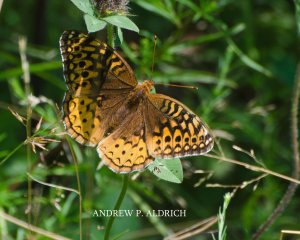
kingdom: Animalia
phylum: Arthropoda
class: Insecta
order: Lepidoptera
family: Nymphalidae
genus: Speyeria
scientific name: Speyeria cybele
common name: Great Spangled Fritillary
